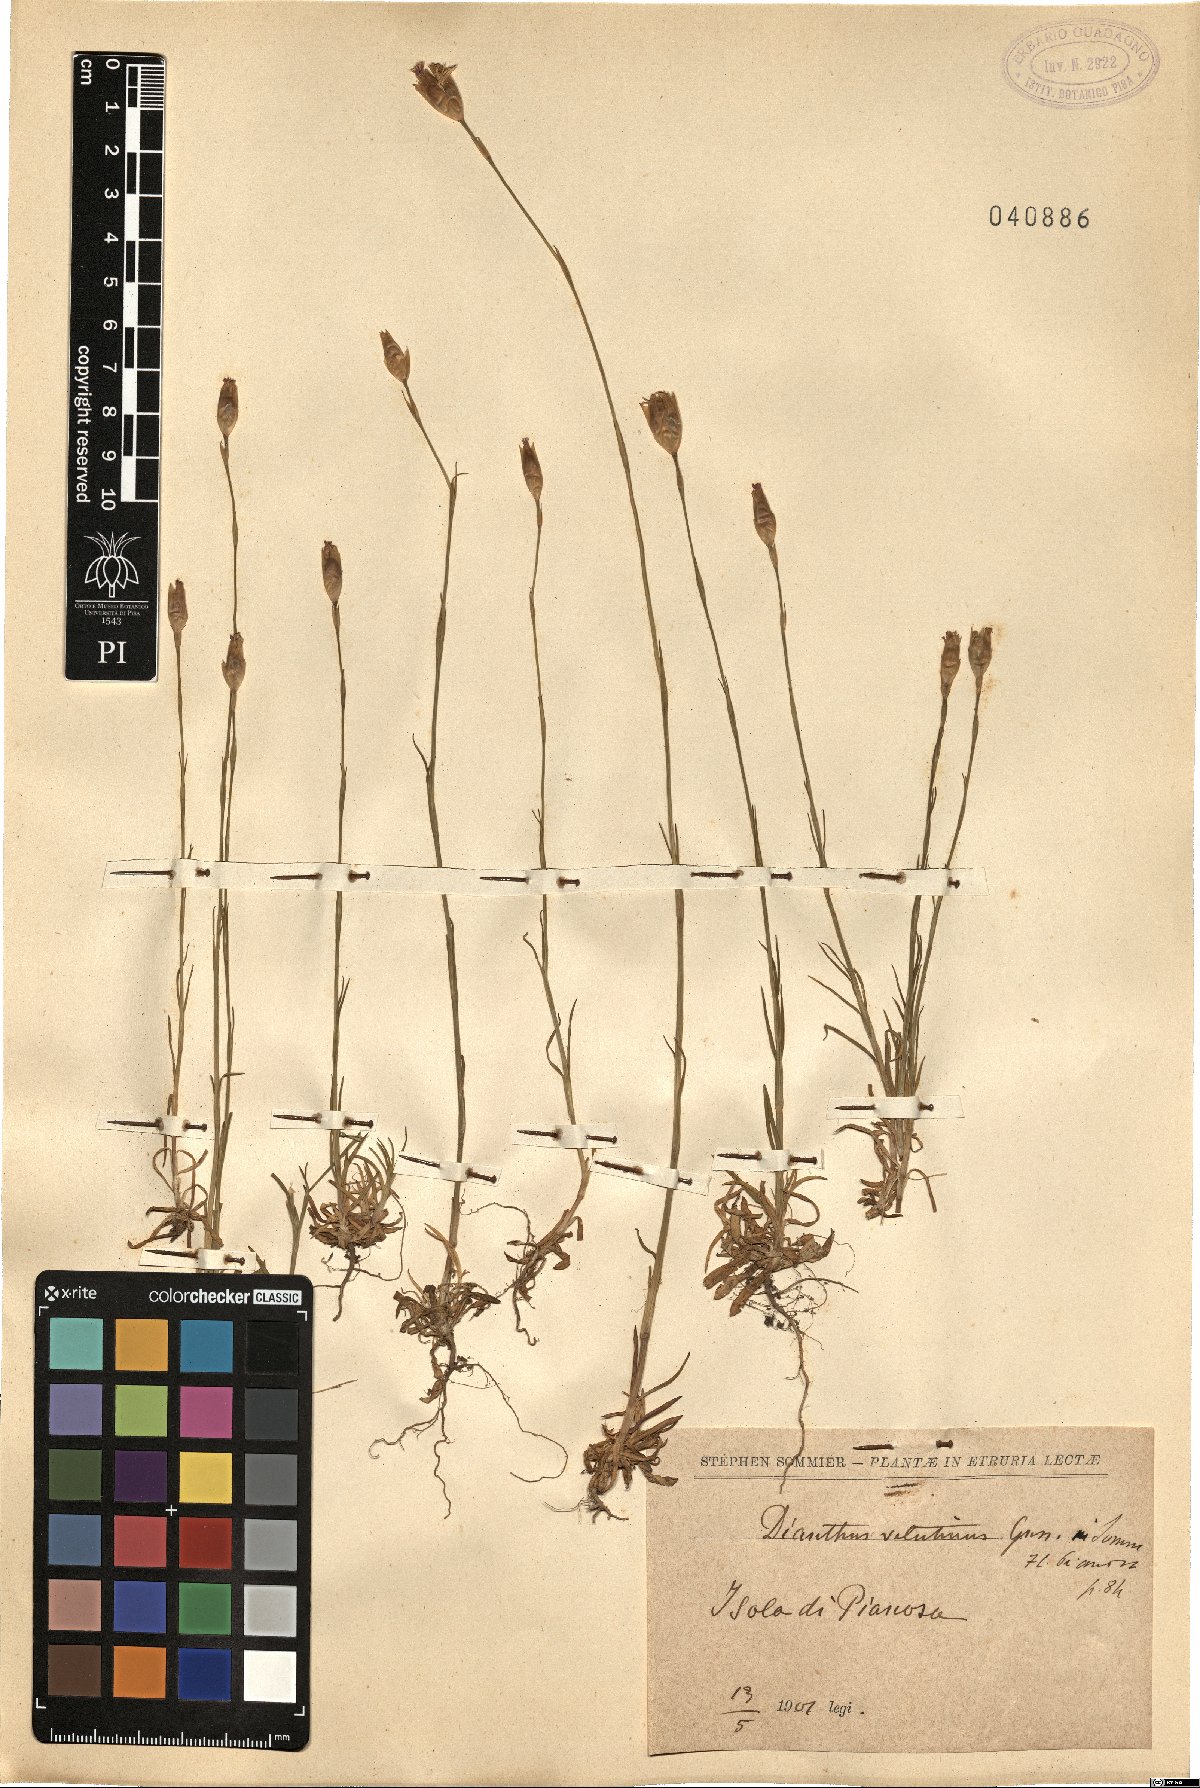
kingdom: Plantae
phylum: Tracheophyta
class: Magnoliopsida
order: Caryophyllales
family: Caryophyllaceae
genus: Petrorhagia
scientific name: Petrorhagia dubia
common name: Hairypink
